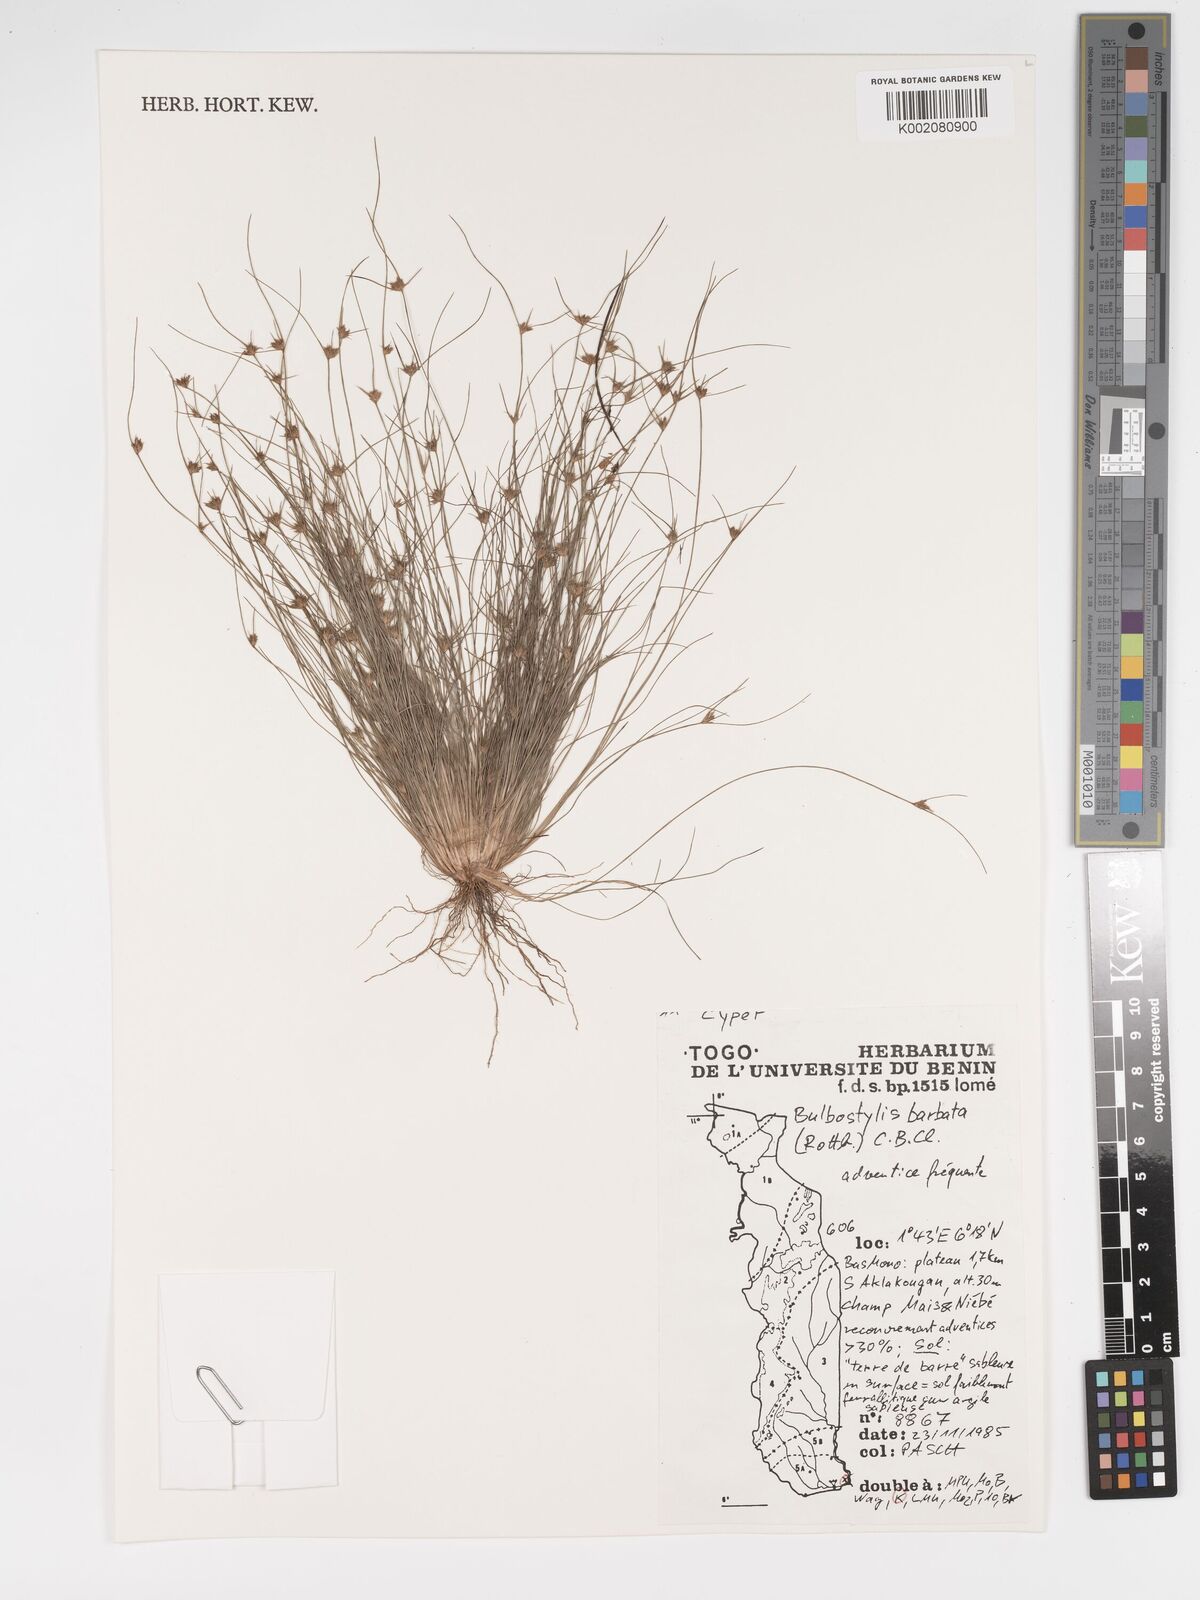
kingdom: Plantae
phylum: Tracheophyta
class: Liliopsida
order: Poales
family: Cyperaceae
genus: Bulbostylis
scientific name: Bulbostylis barbata
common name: Watergrass
